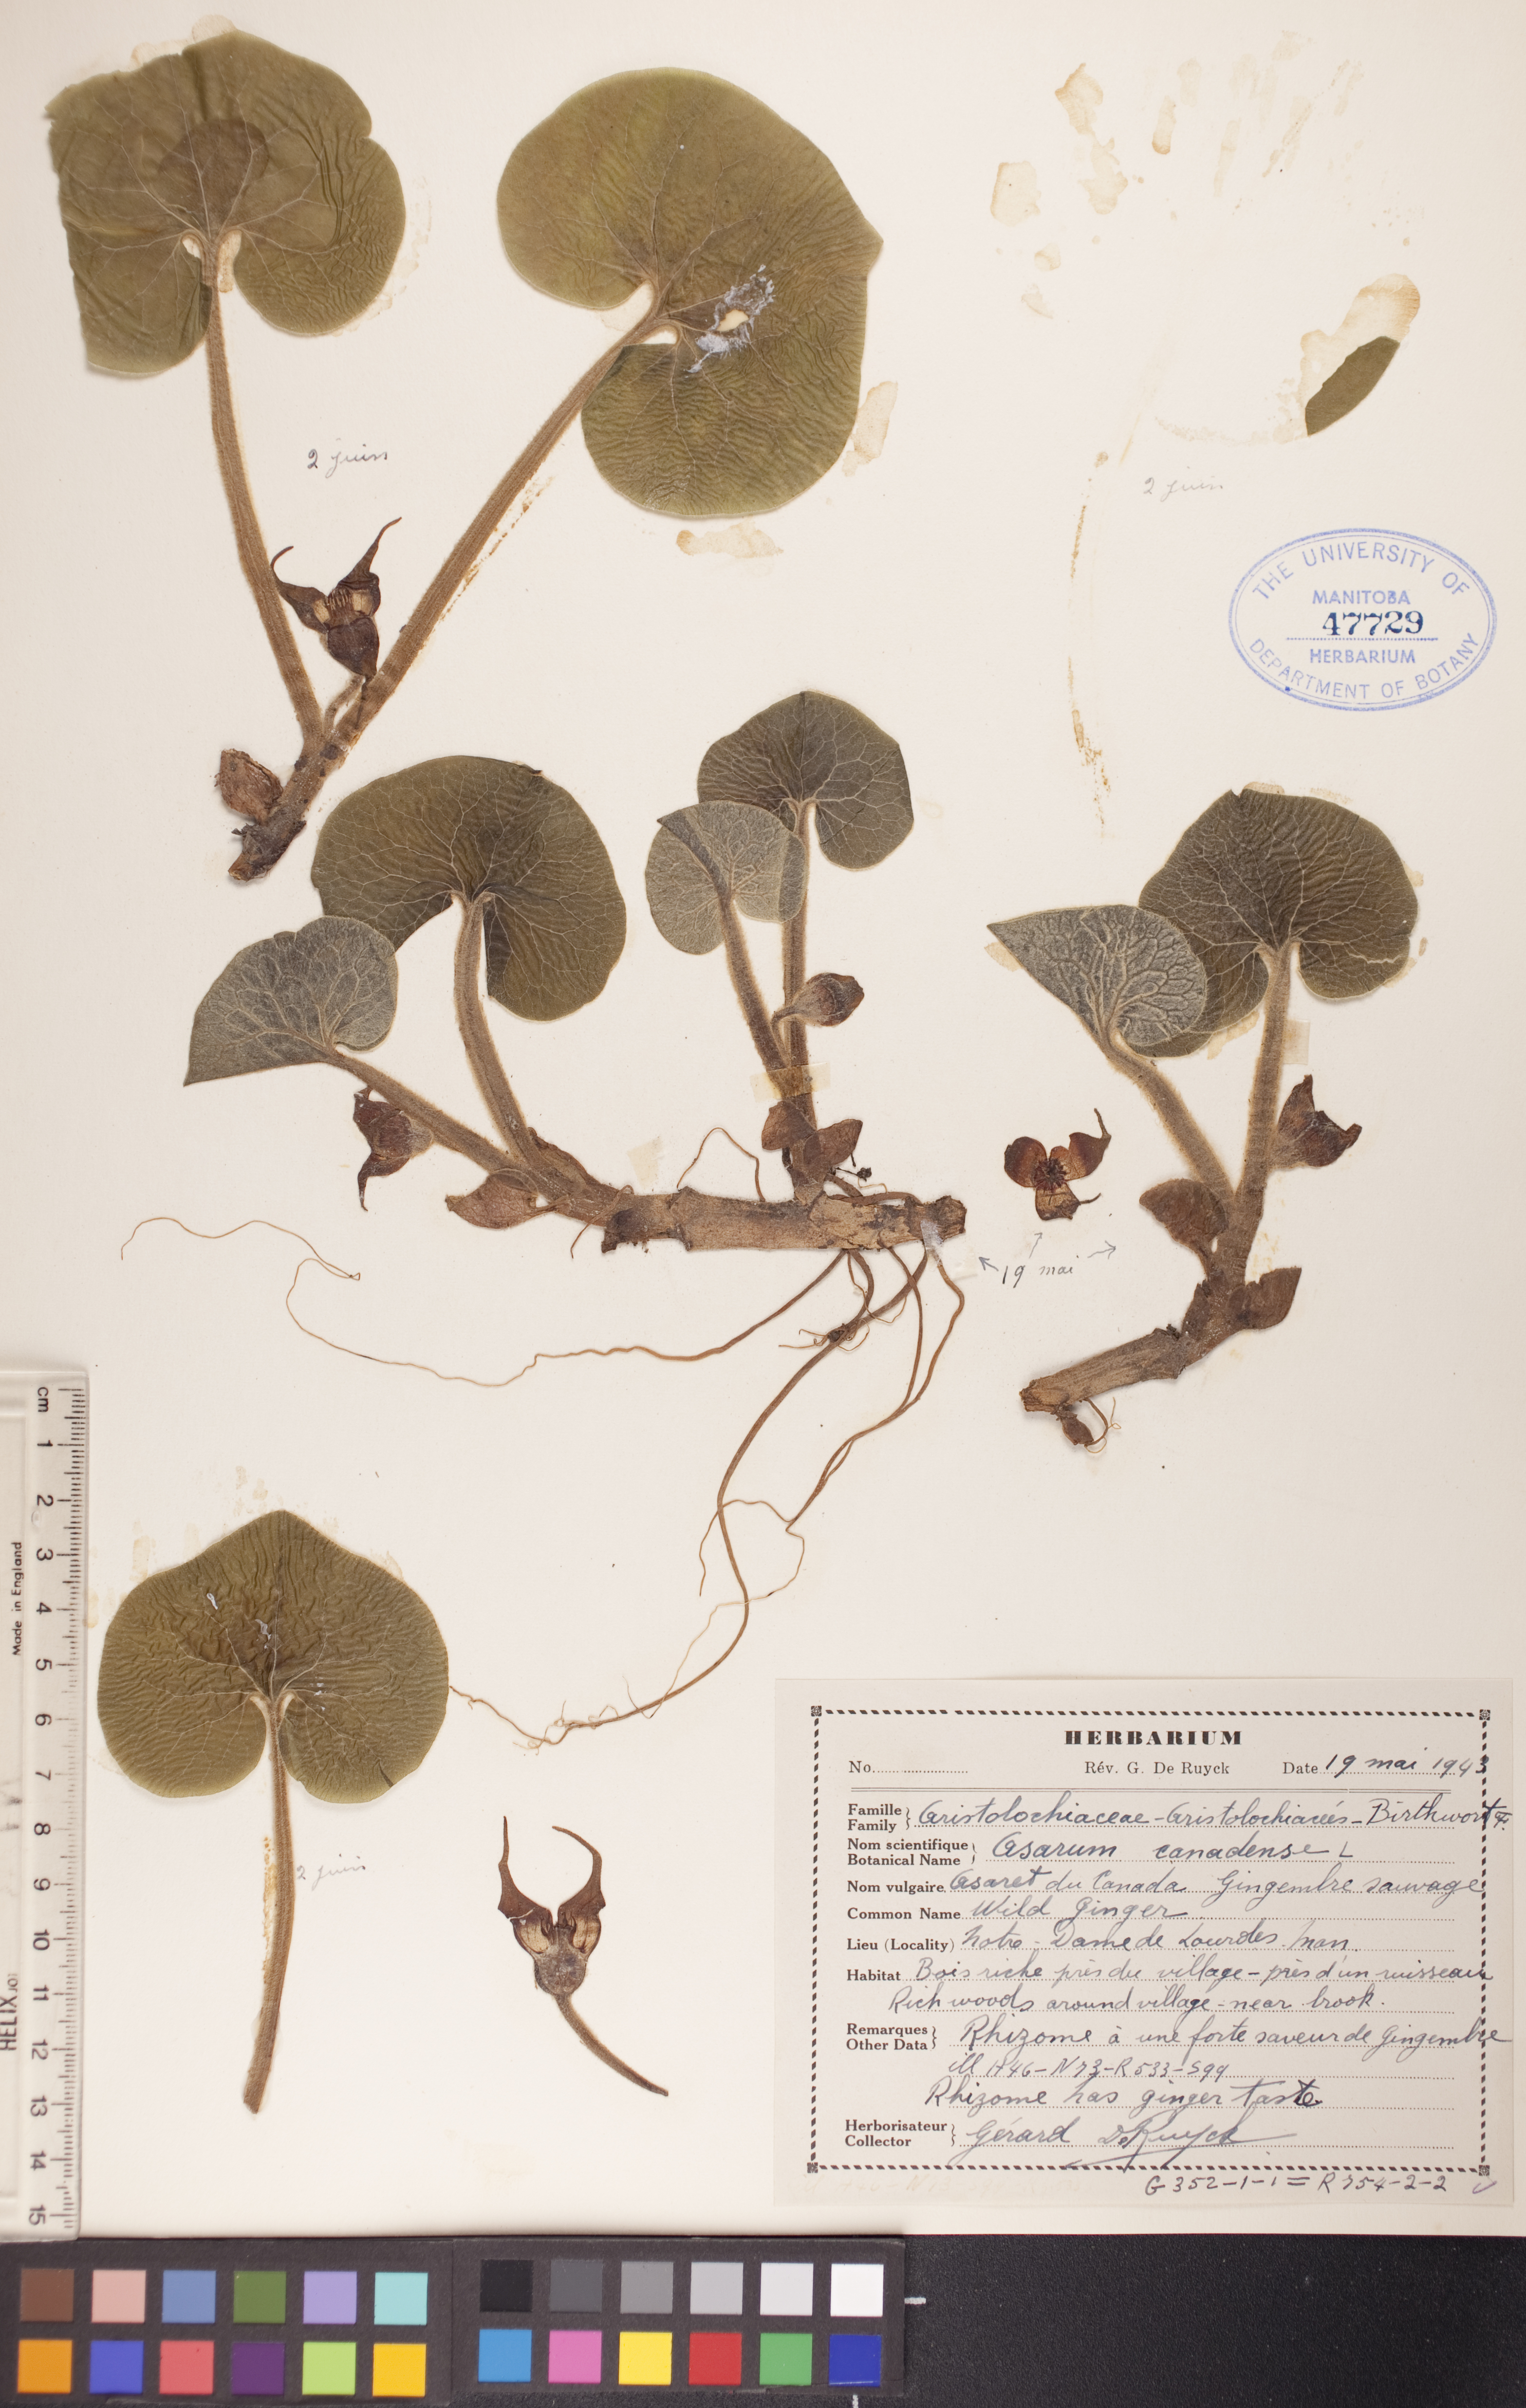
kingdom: Plantae
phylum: Tracheophyta
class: Magnoliopsida
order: Piperales
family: Aristolochiaceae
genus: Asarum
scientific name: Asarum canadense
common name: Wild ginger
